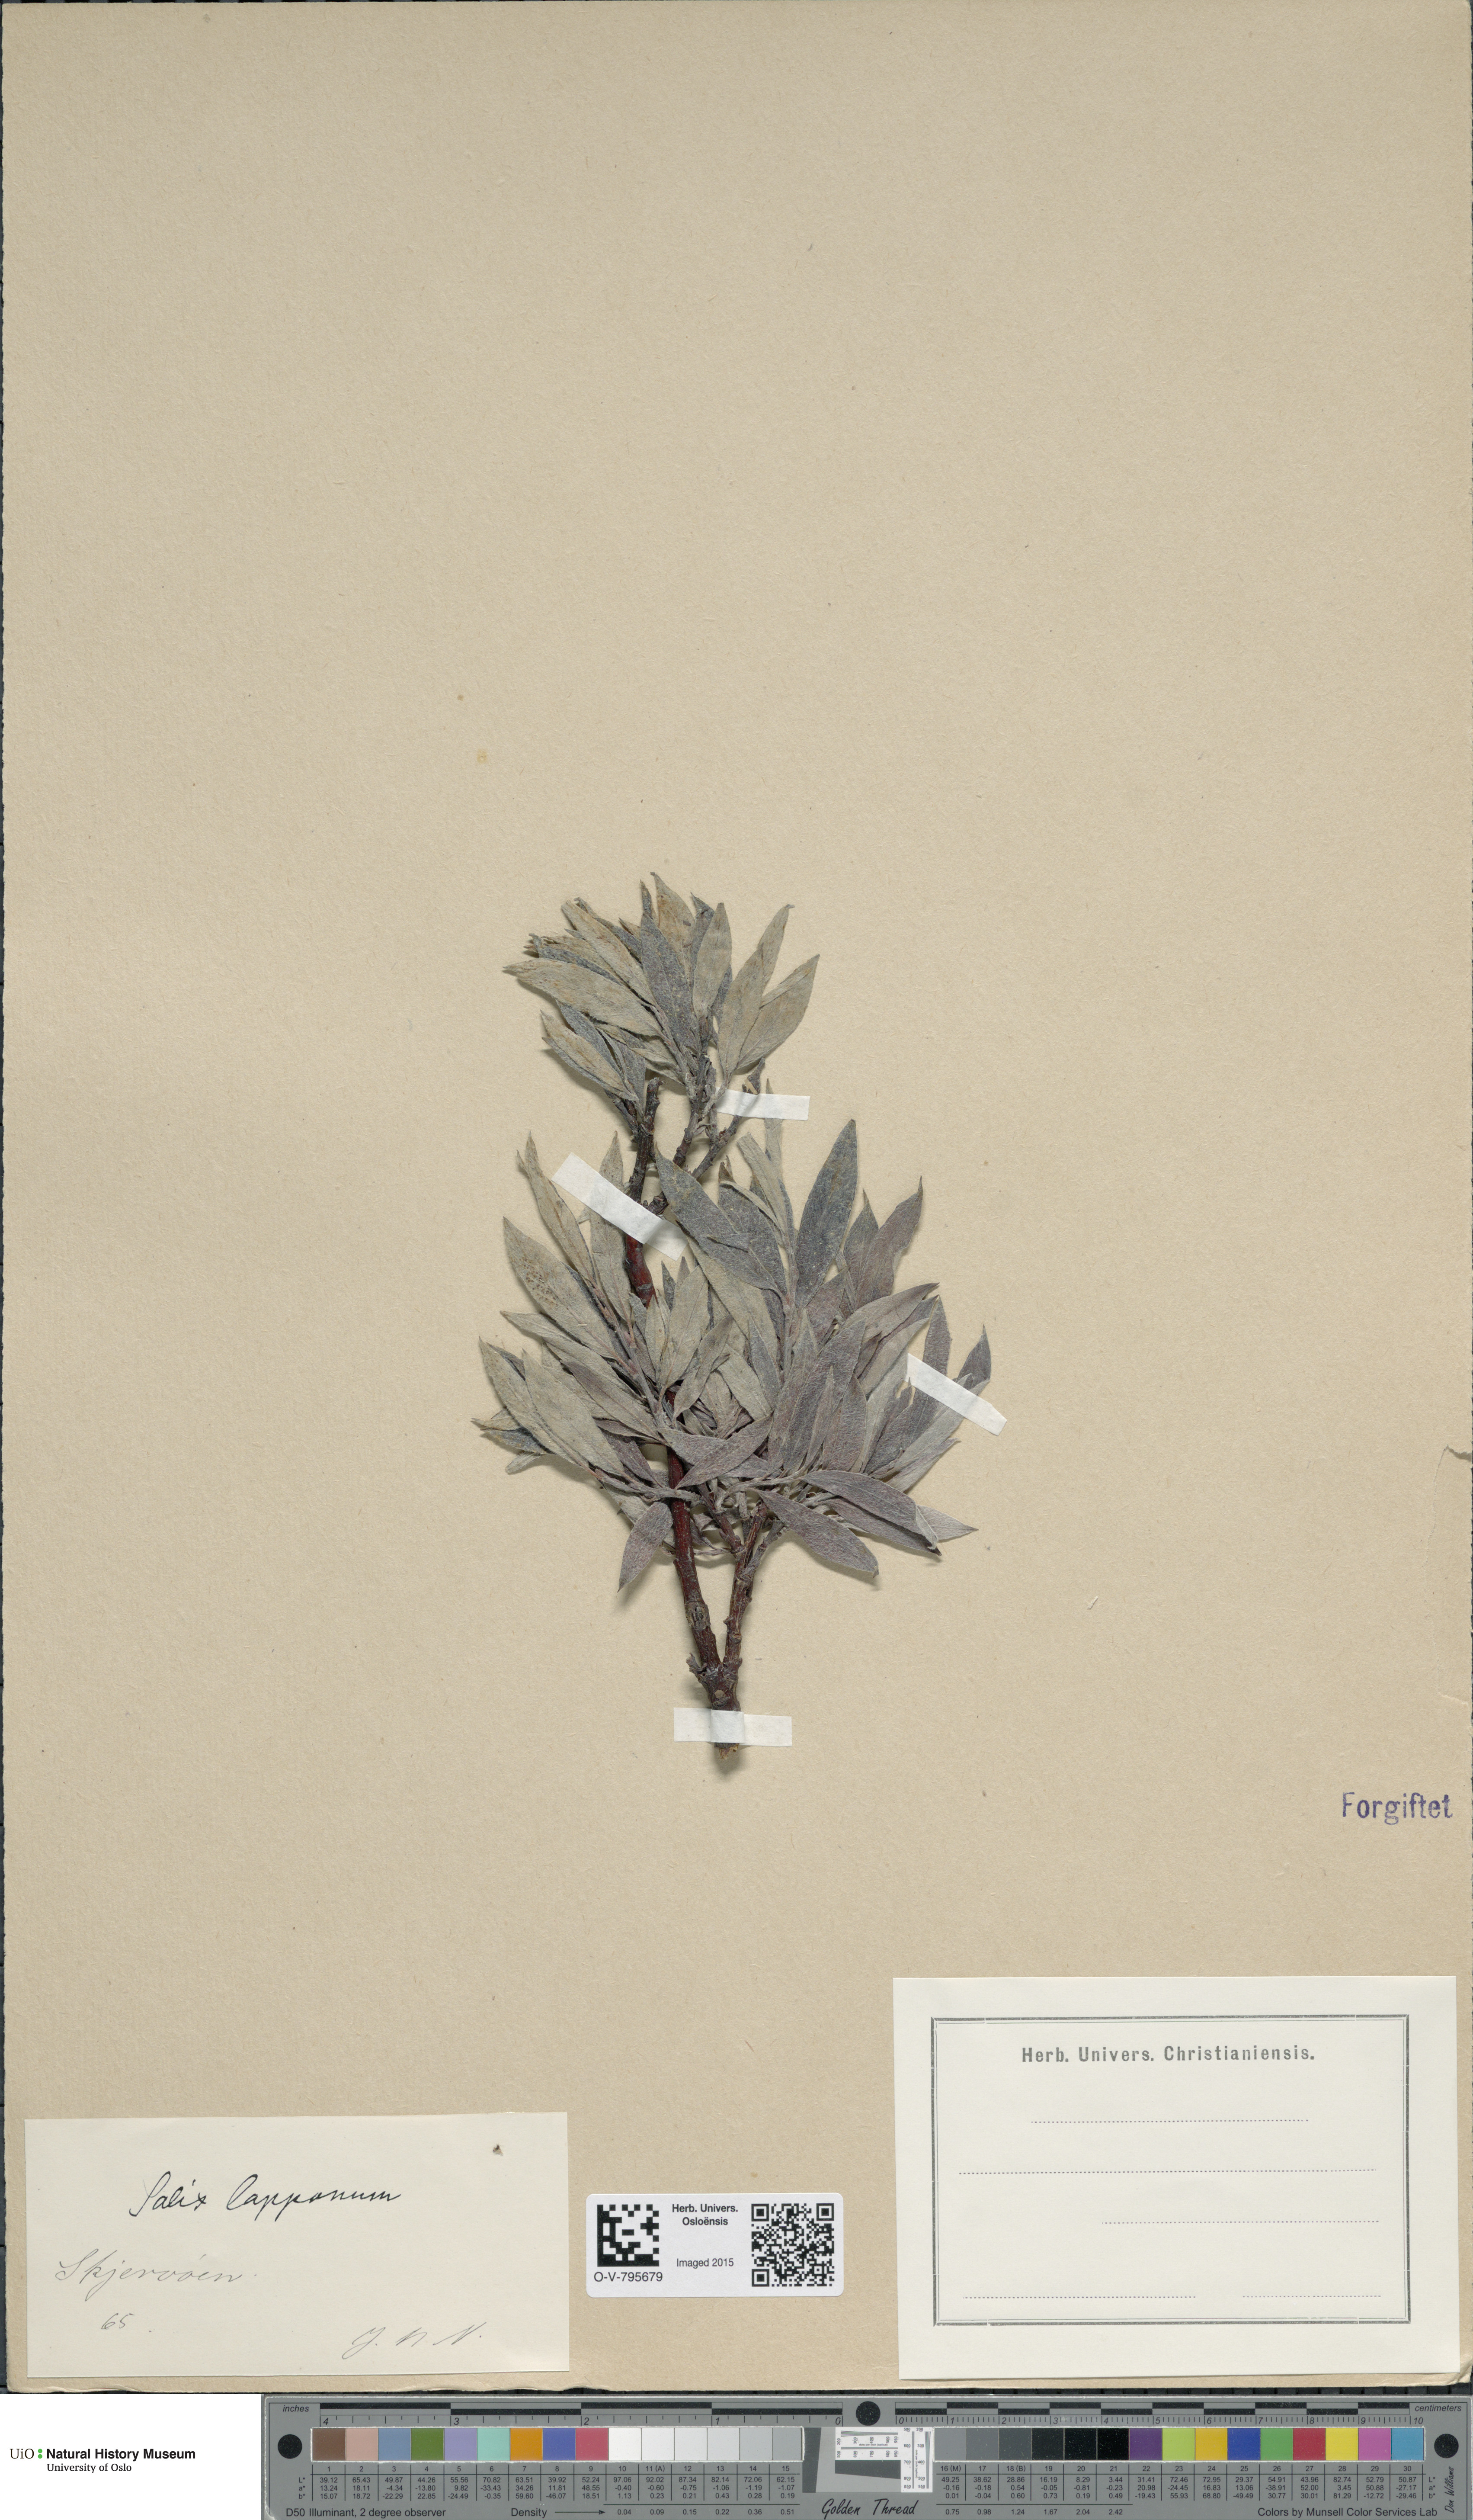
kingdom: Plantae
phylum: Tracheophyta
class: Magnoliopsida
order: Malpighiales
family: Salicaceae
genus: Salix
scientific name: Salix lapponum
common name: Downy willow
